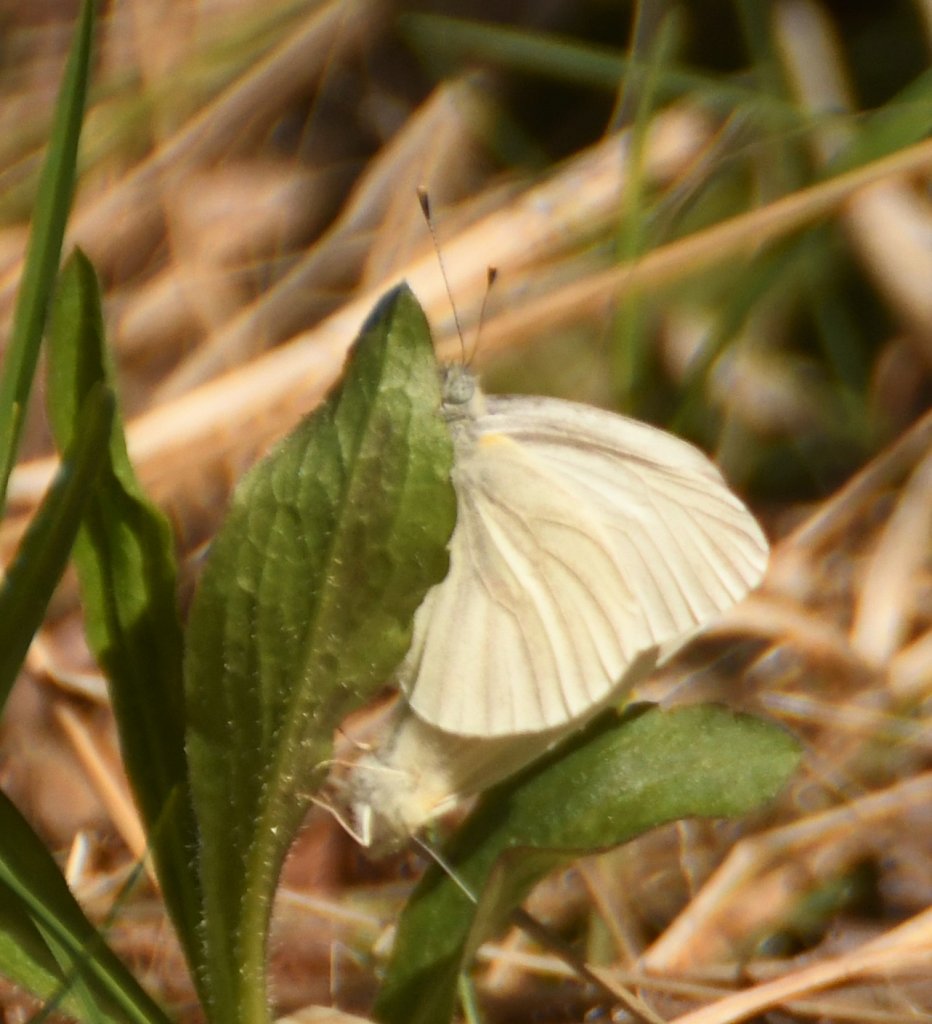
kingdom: Animalia
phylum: Arthropoda
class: Insecta
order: Lepidoptera
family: Pieridae
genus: Pieris
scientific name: Pieris virginiensis
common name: West Virginia White
